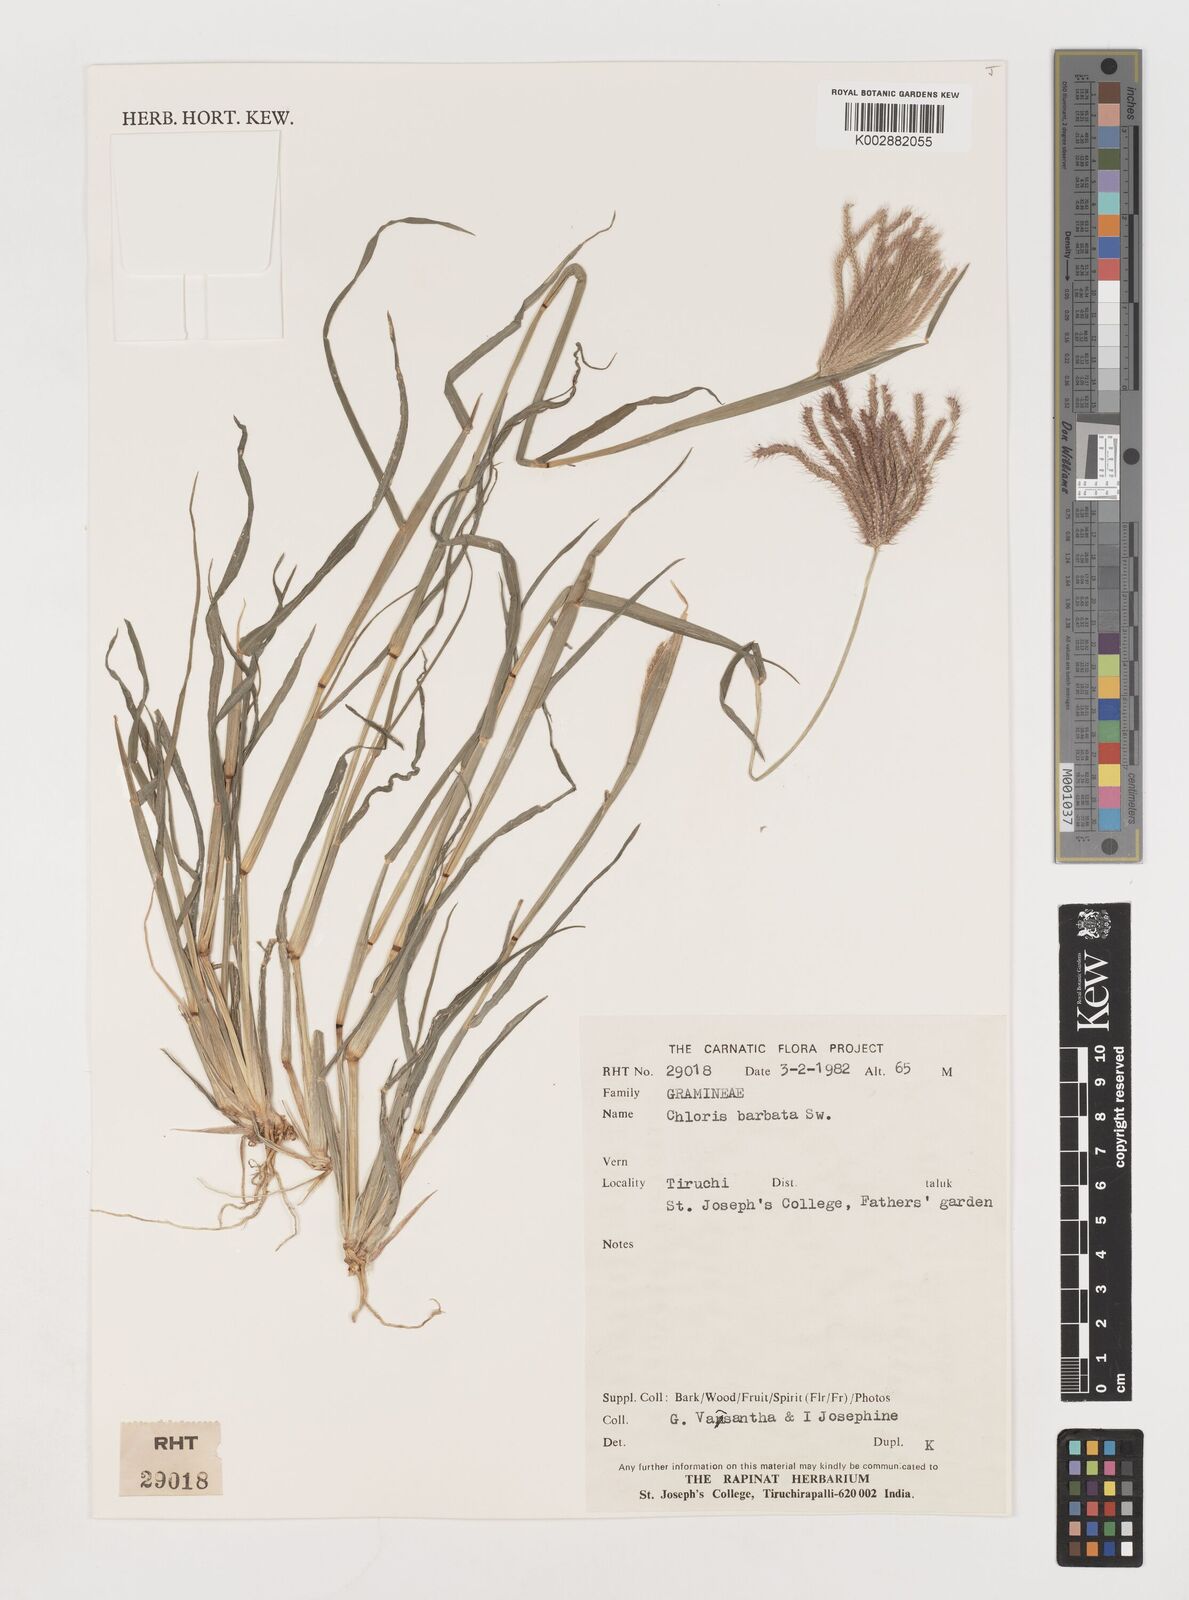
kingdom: Plantae
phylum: Tracheophyta
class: Liliopsida
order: Poales
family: Poaceae
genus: Chloris
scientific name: Chloris barbata
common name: Swollen fingergrass
